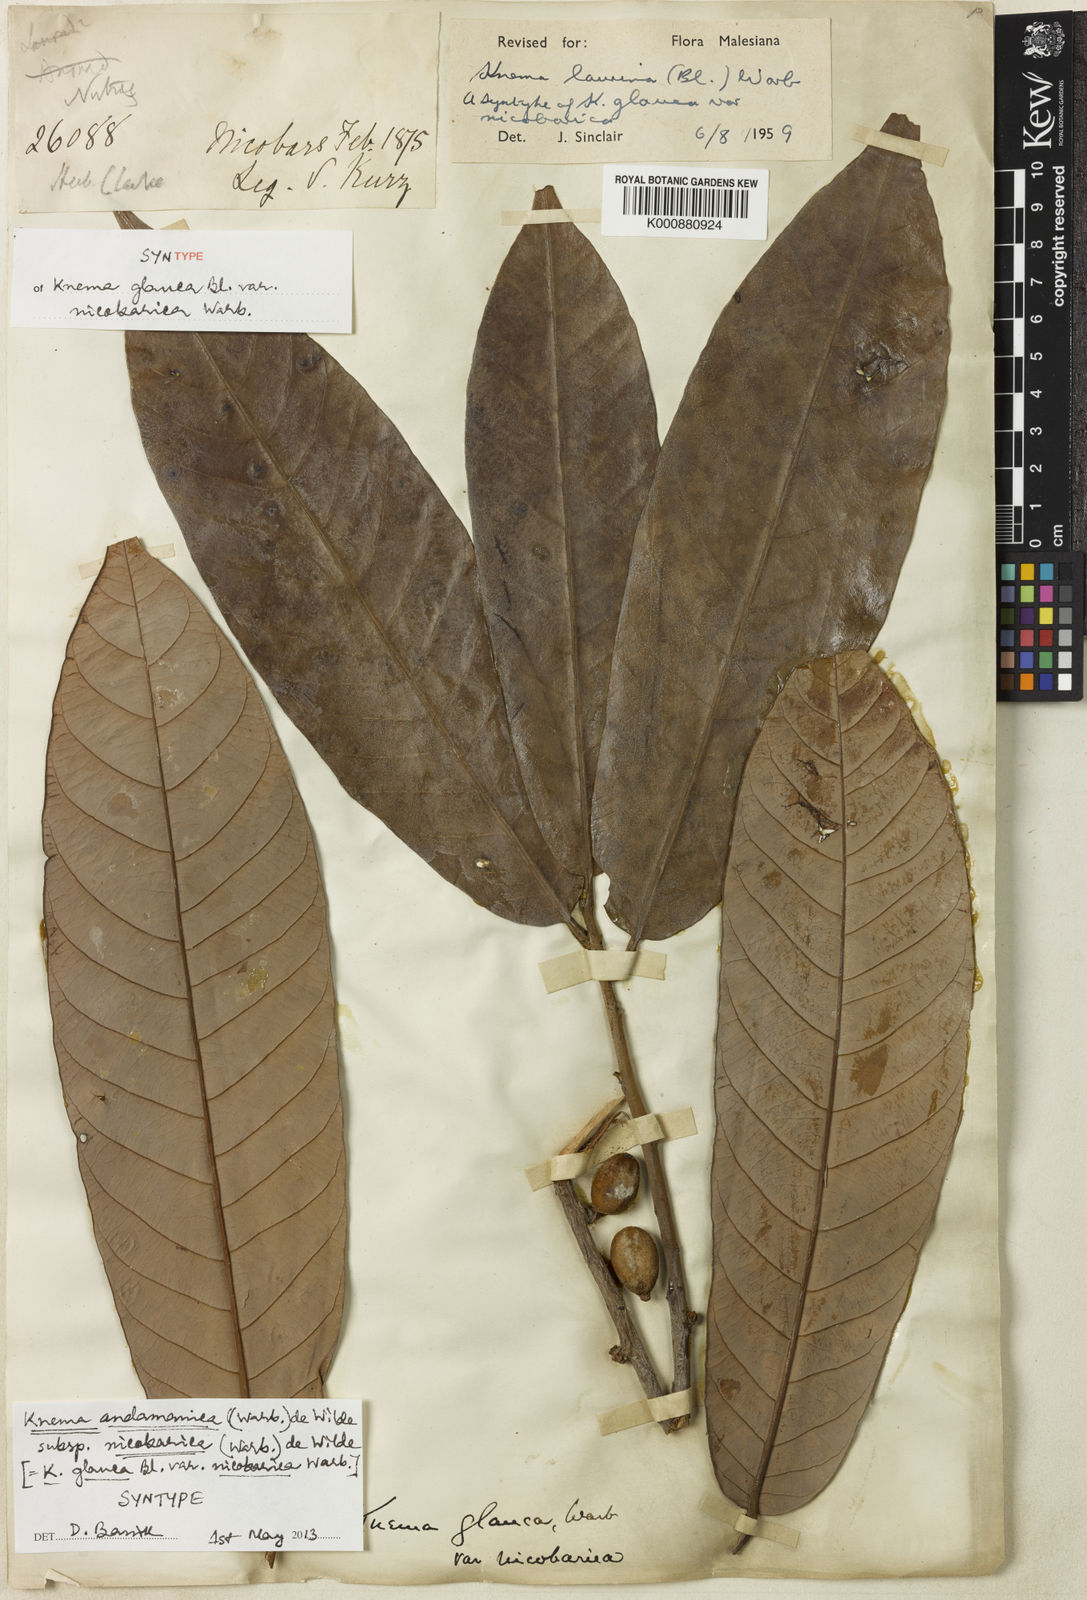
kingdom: Plantae
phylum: Tracheophyta
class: Magnoliopsida
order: Magnoliales
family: Myristicaceae
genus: Knema
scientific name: Knema andamanica
